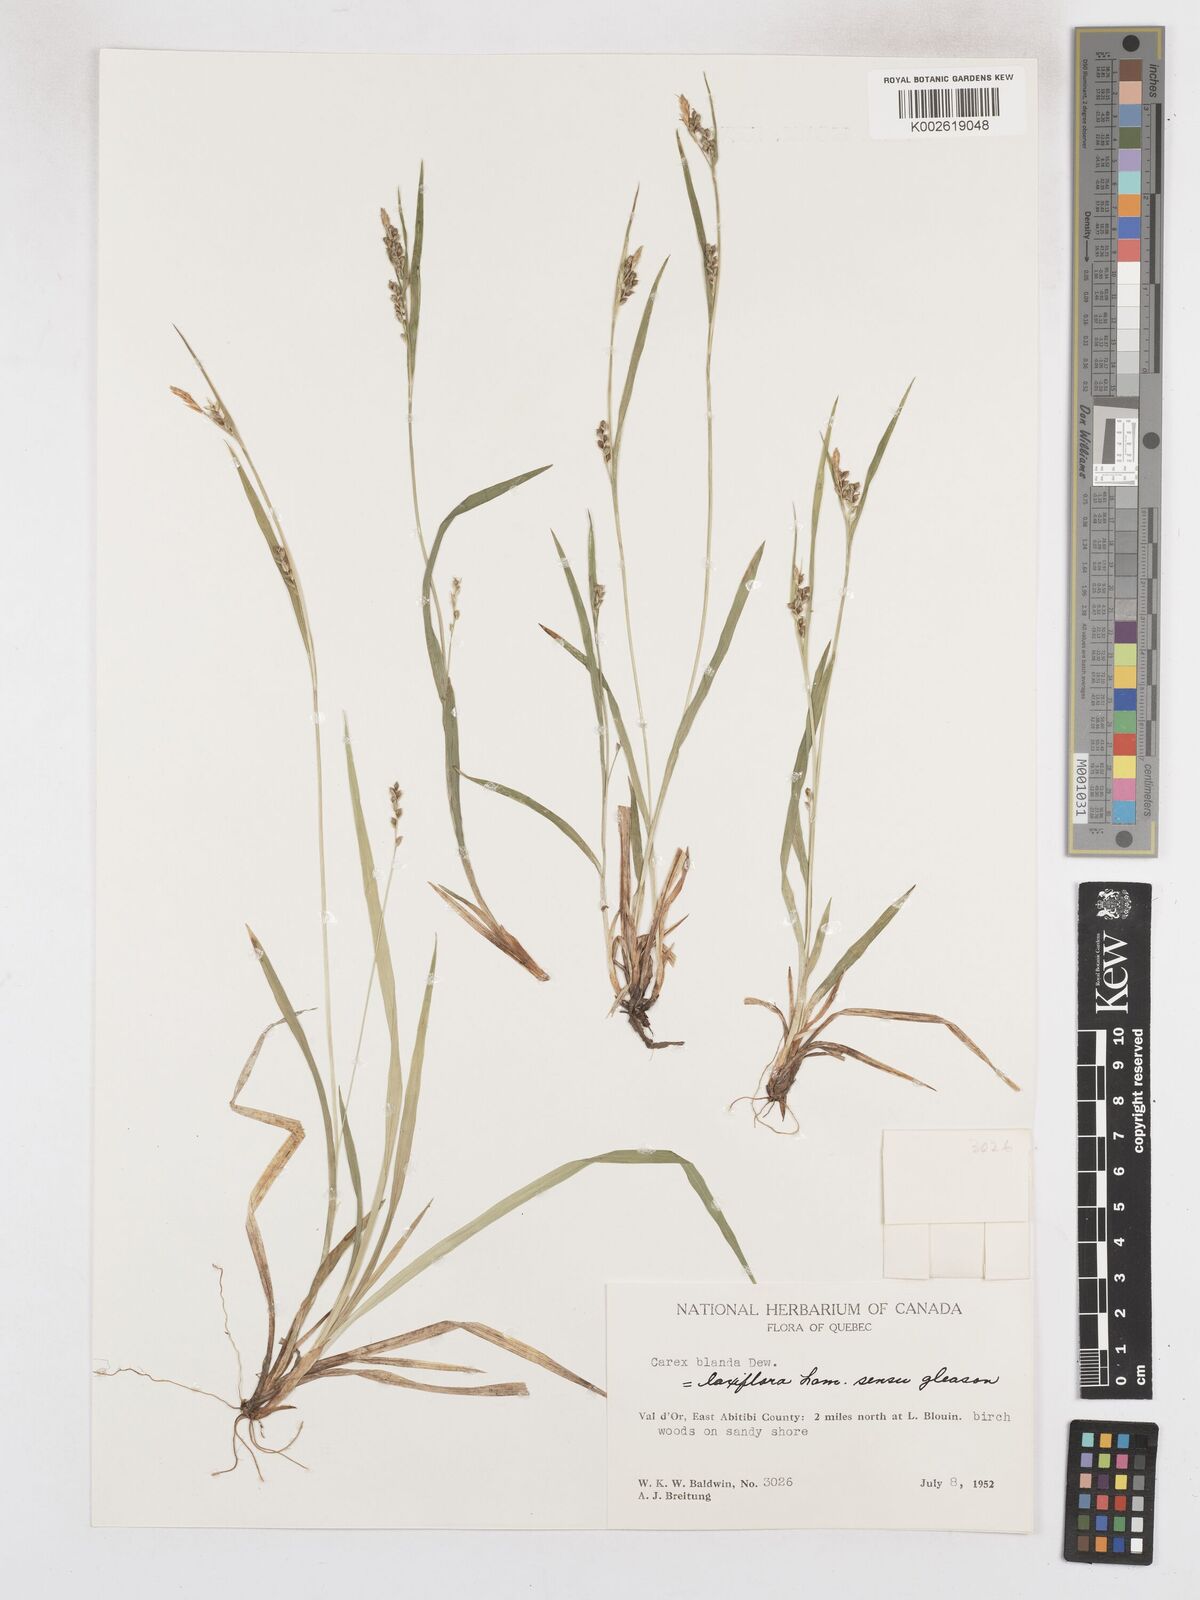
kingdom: Plantae
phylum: Tracheophyta
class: Liliopsida
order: Poales
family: Cyperaceae
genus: Carex
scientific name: Carex blanda
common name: Bland sedge
